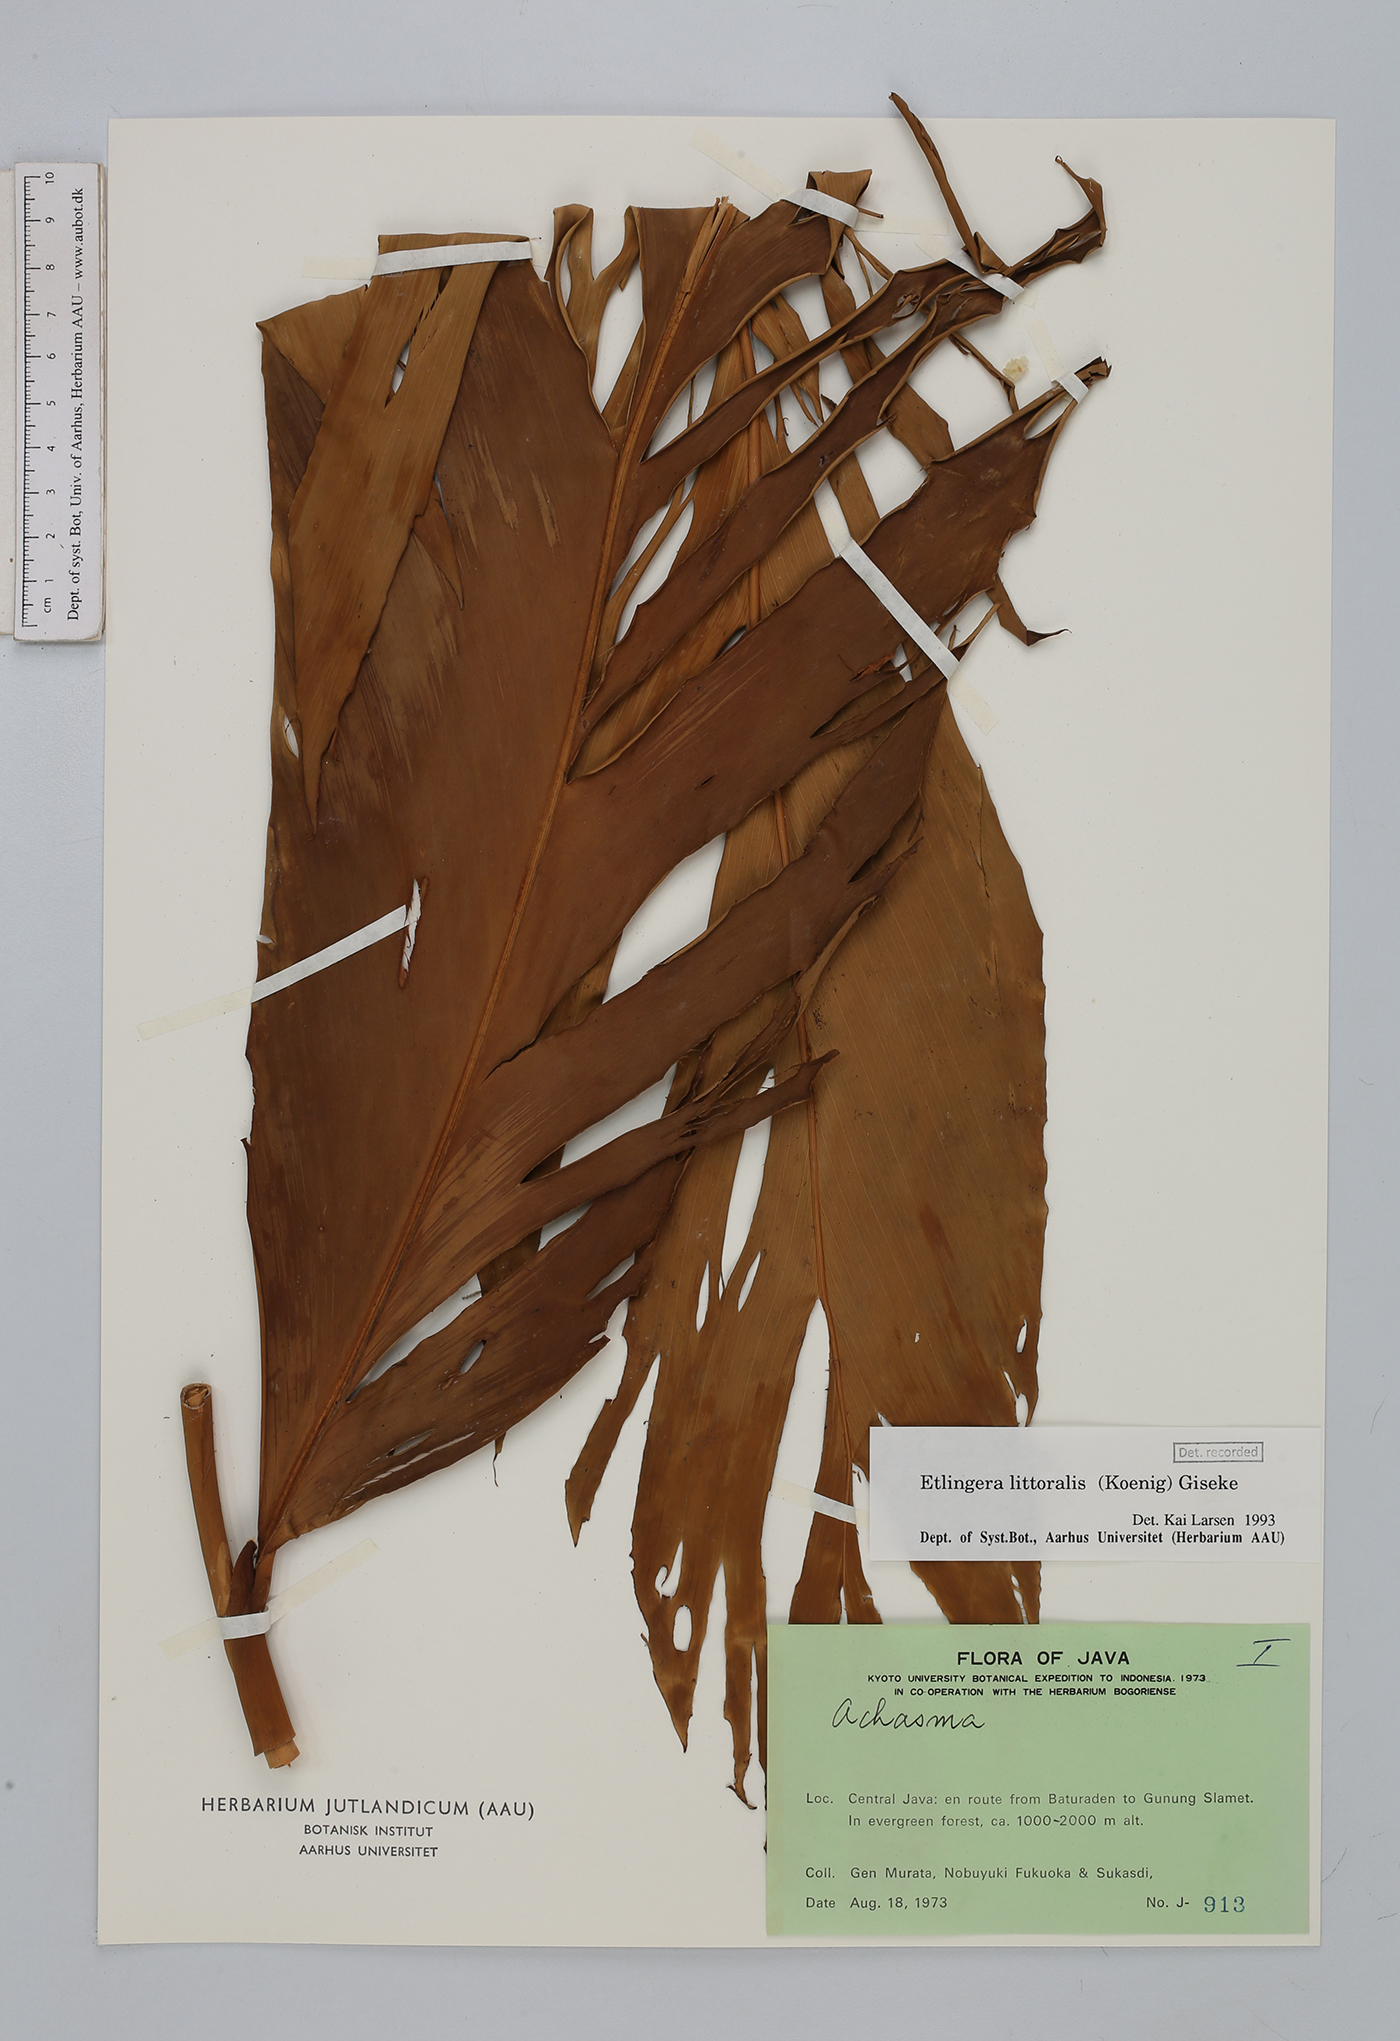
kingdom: Plantae
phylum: Tracheophyta
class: Liliopsida
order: Zingiberales
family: Zingiberaceae
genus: Etlingera
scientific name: Etlingera littoralis
